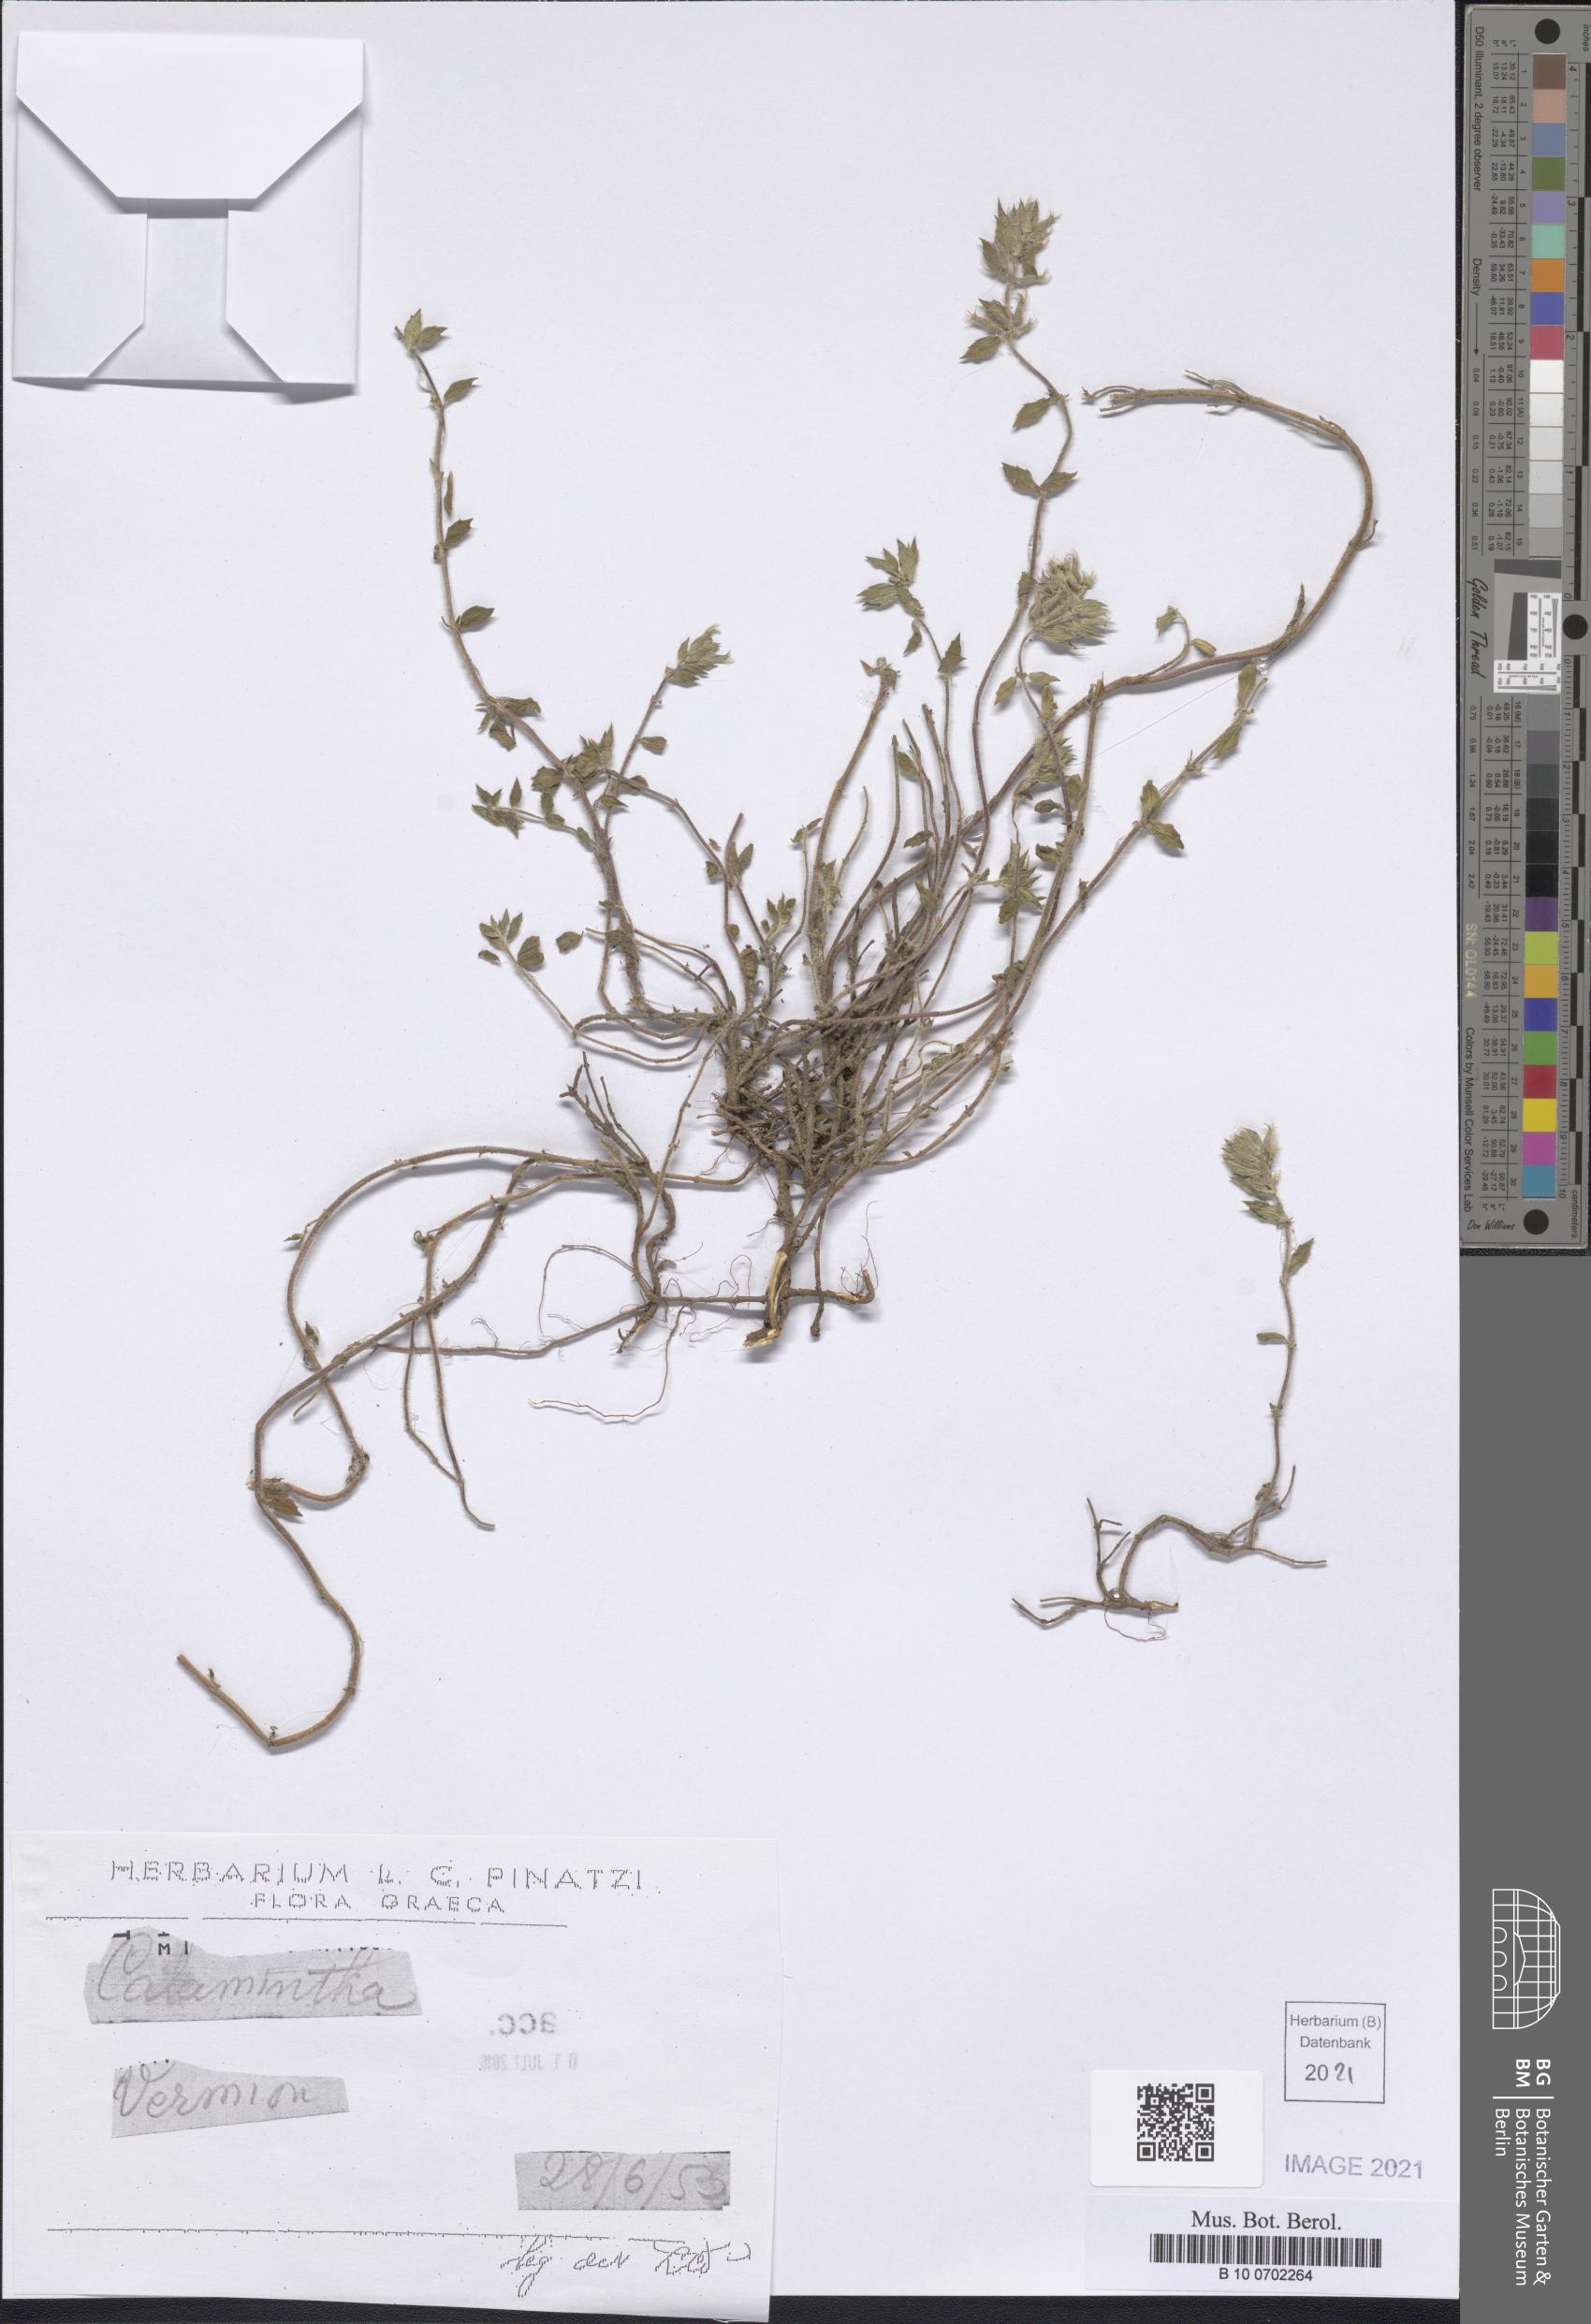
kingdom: Plantae
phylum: Tracheophyta
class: Magnoliopsida
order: Lamiales
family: Lamiaceae
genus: Clinopodium
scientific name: Clinopodium alpinum
